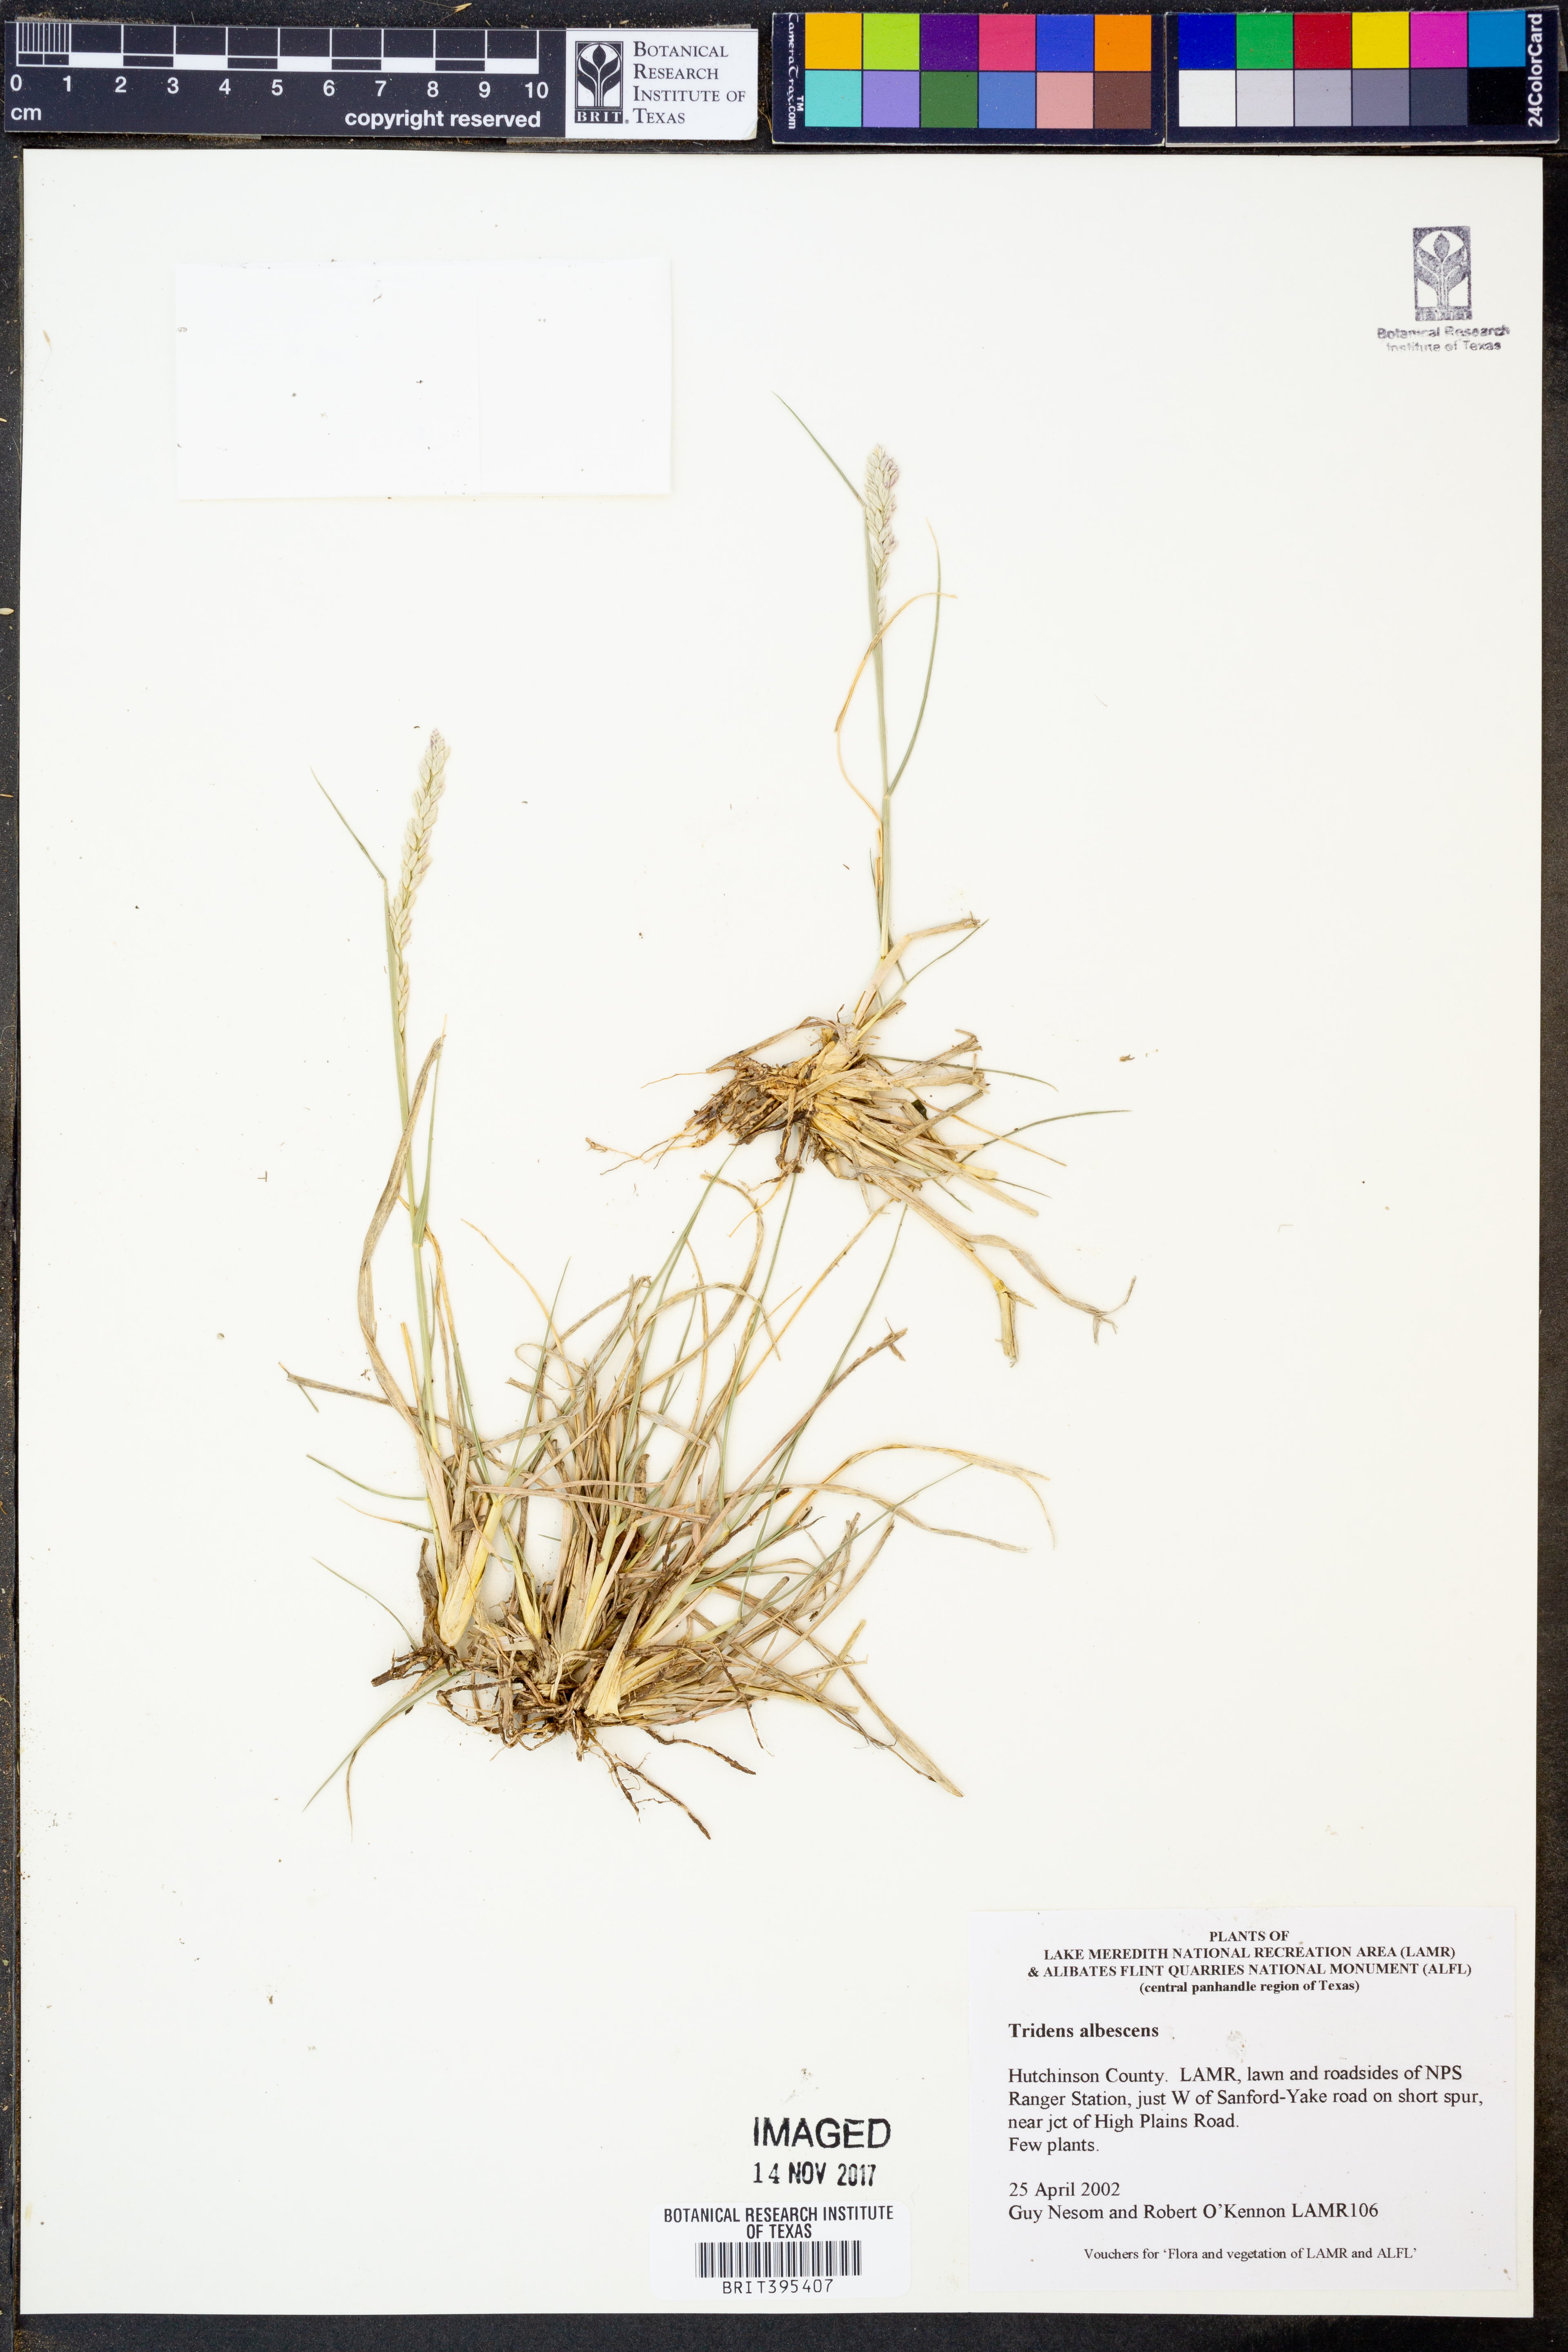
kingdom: Plantae
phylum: Tracheophyta
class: Liliopsida
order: Poales
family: Poaceae
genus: Tridens
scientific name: Tridens albescens
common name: White tridens
